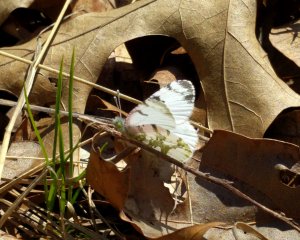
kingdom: Animalia
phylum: Arthropoda
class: Insecta
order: Lepidoptera
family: Pieridae
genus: Euchloe
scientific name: Euchloe olympia
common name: Olympia Marble
